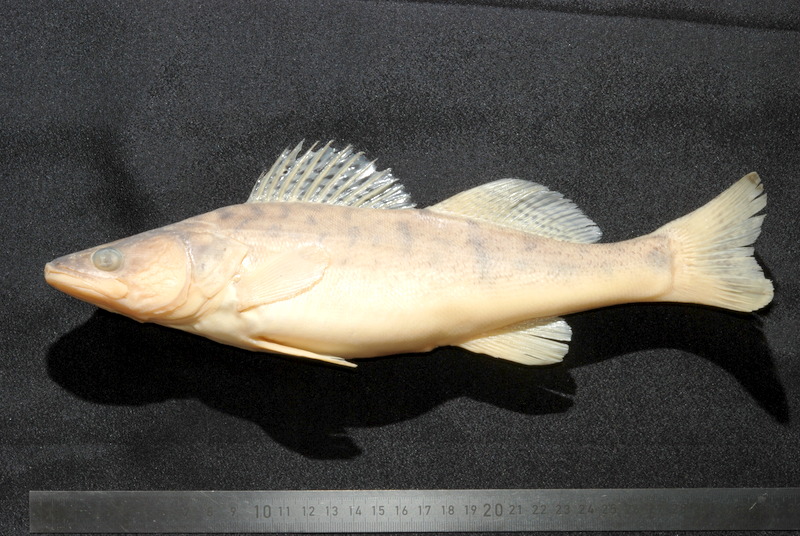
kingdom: Animalia
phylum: Chordata
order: Perciformes
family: Percidae
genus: Sander
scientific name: Sander lucioperca
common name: Pikeperch
